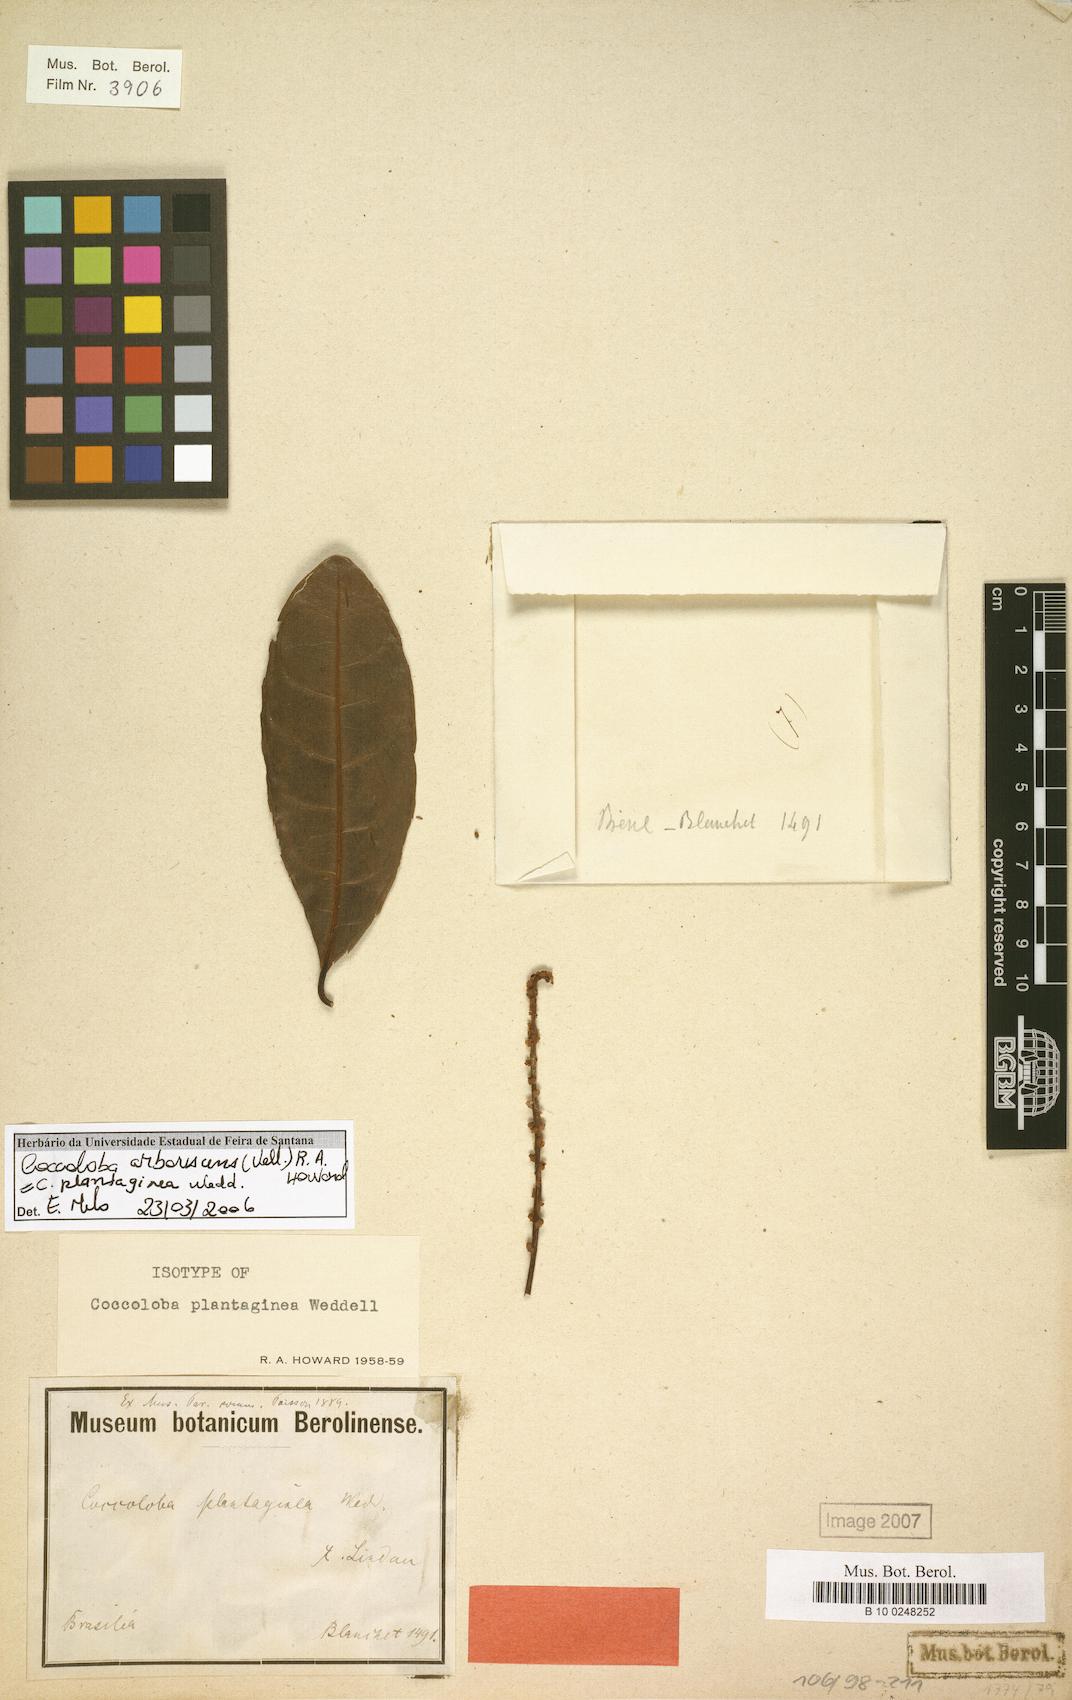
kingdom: Plantae
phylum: Tracheophyta
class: Magnoliopsida
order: Caryophyllales
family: Polygonaceae
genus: Coccoloba
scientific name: Coccoloba arborescens
